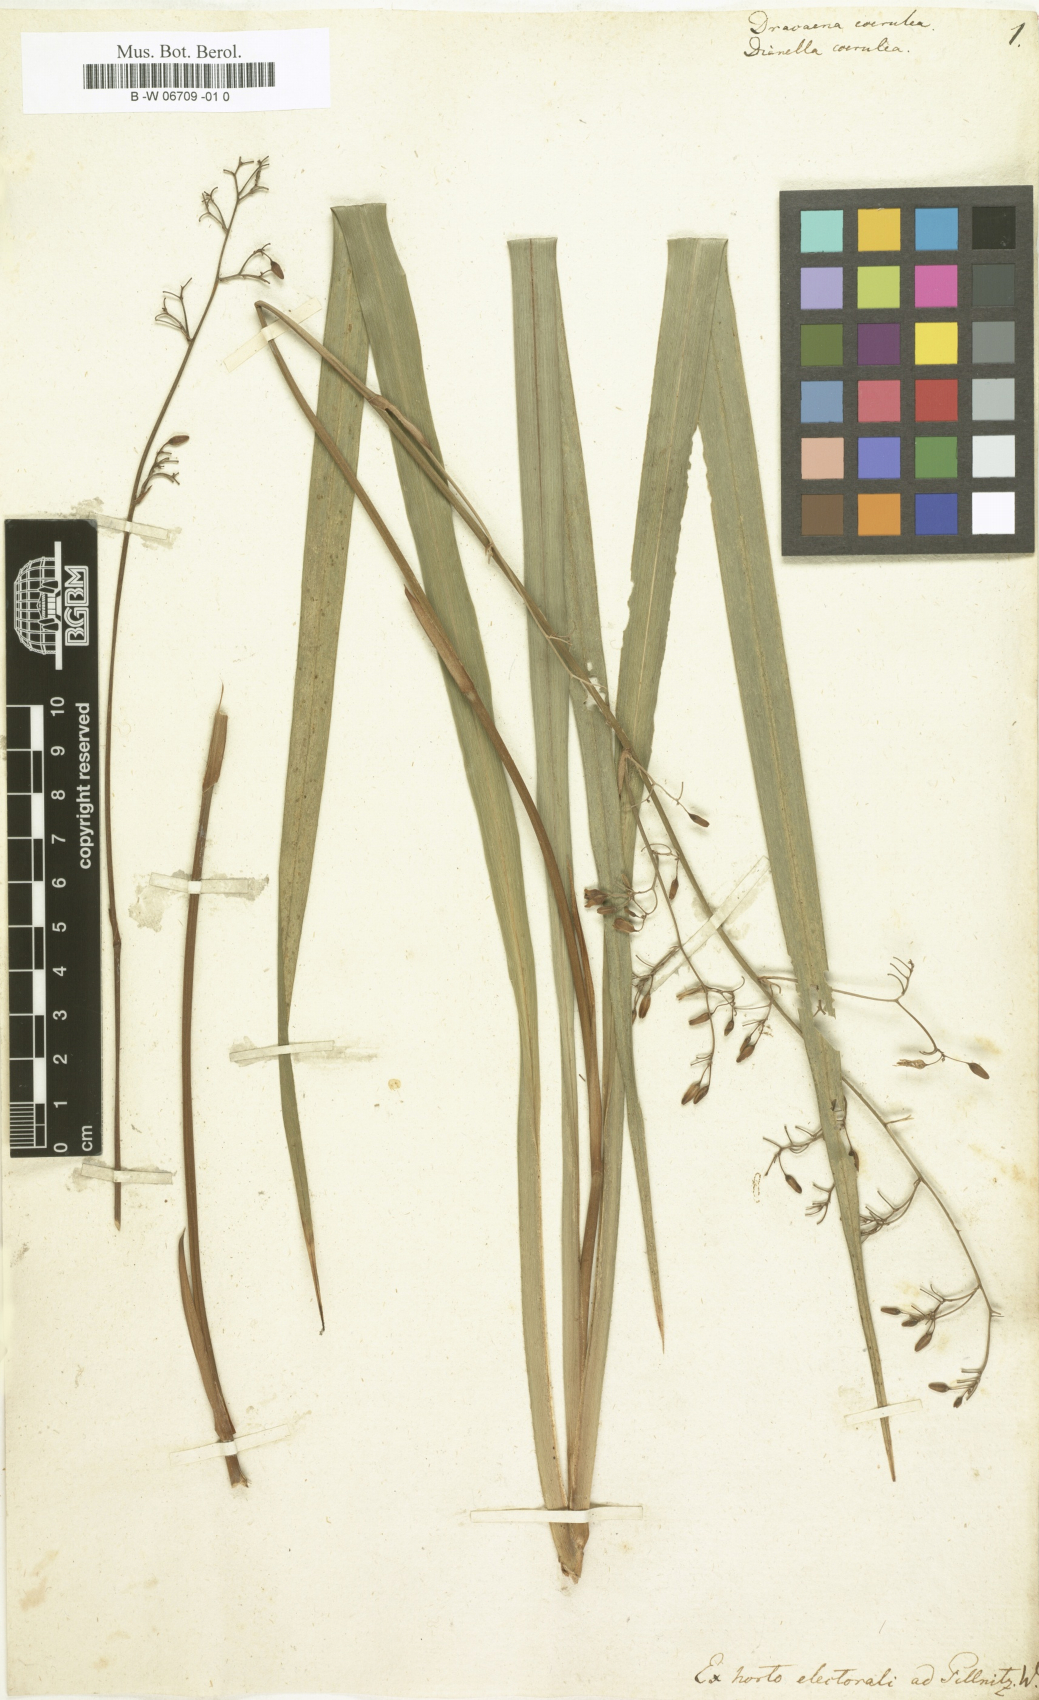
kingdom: Plantae
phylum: Tracheophyta
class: Liliopsida
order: Asparagales
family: Asparagaceae
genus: Dracaena
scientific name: Dracaena
